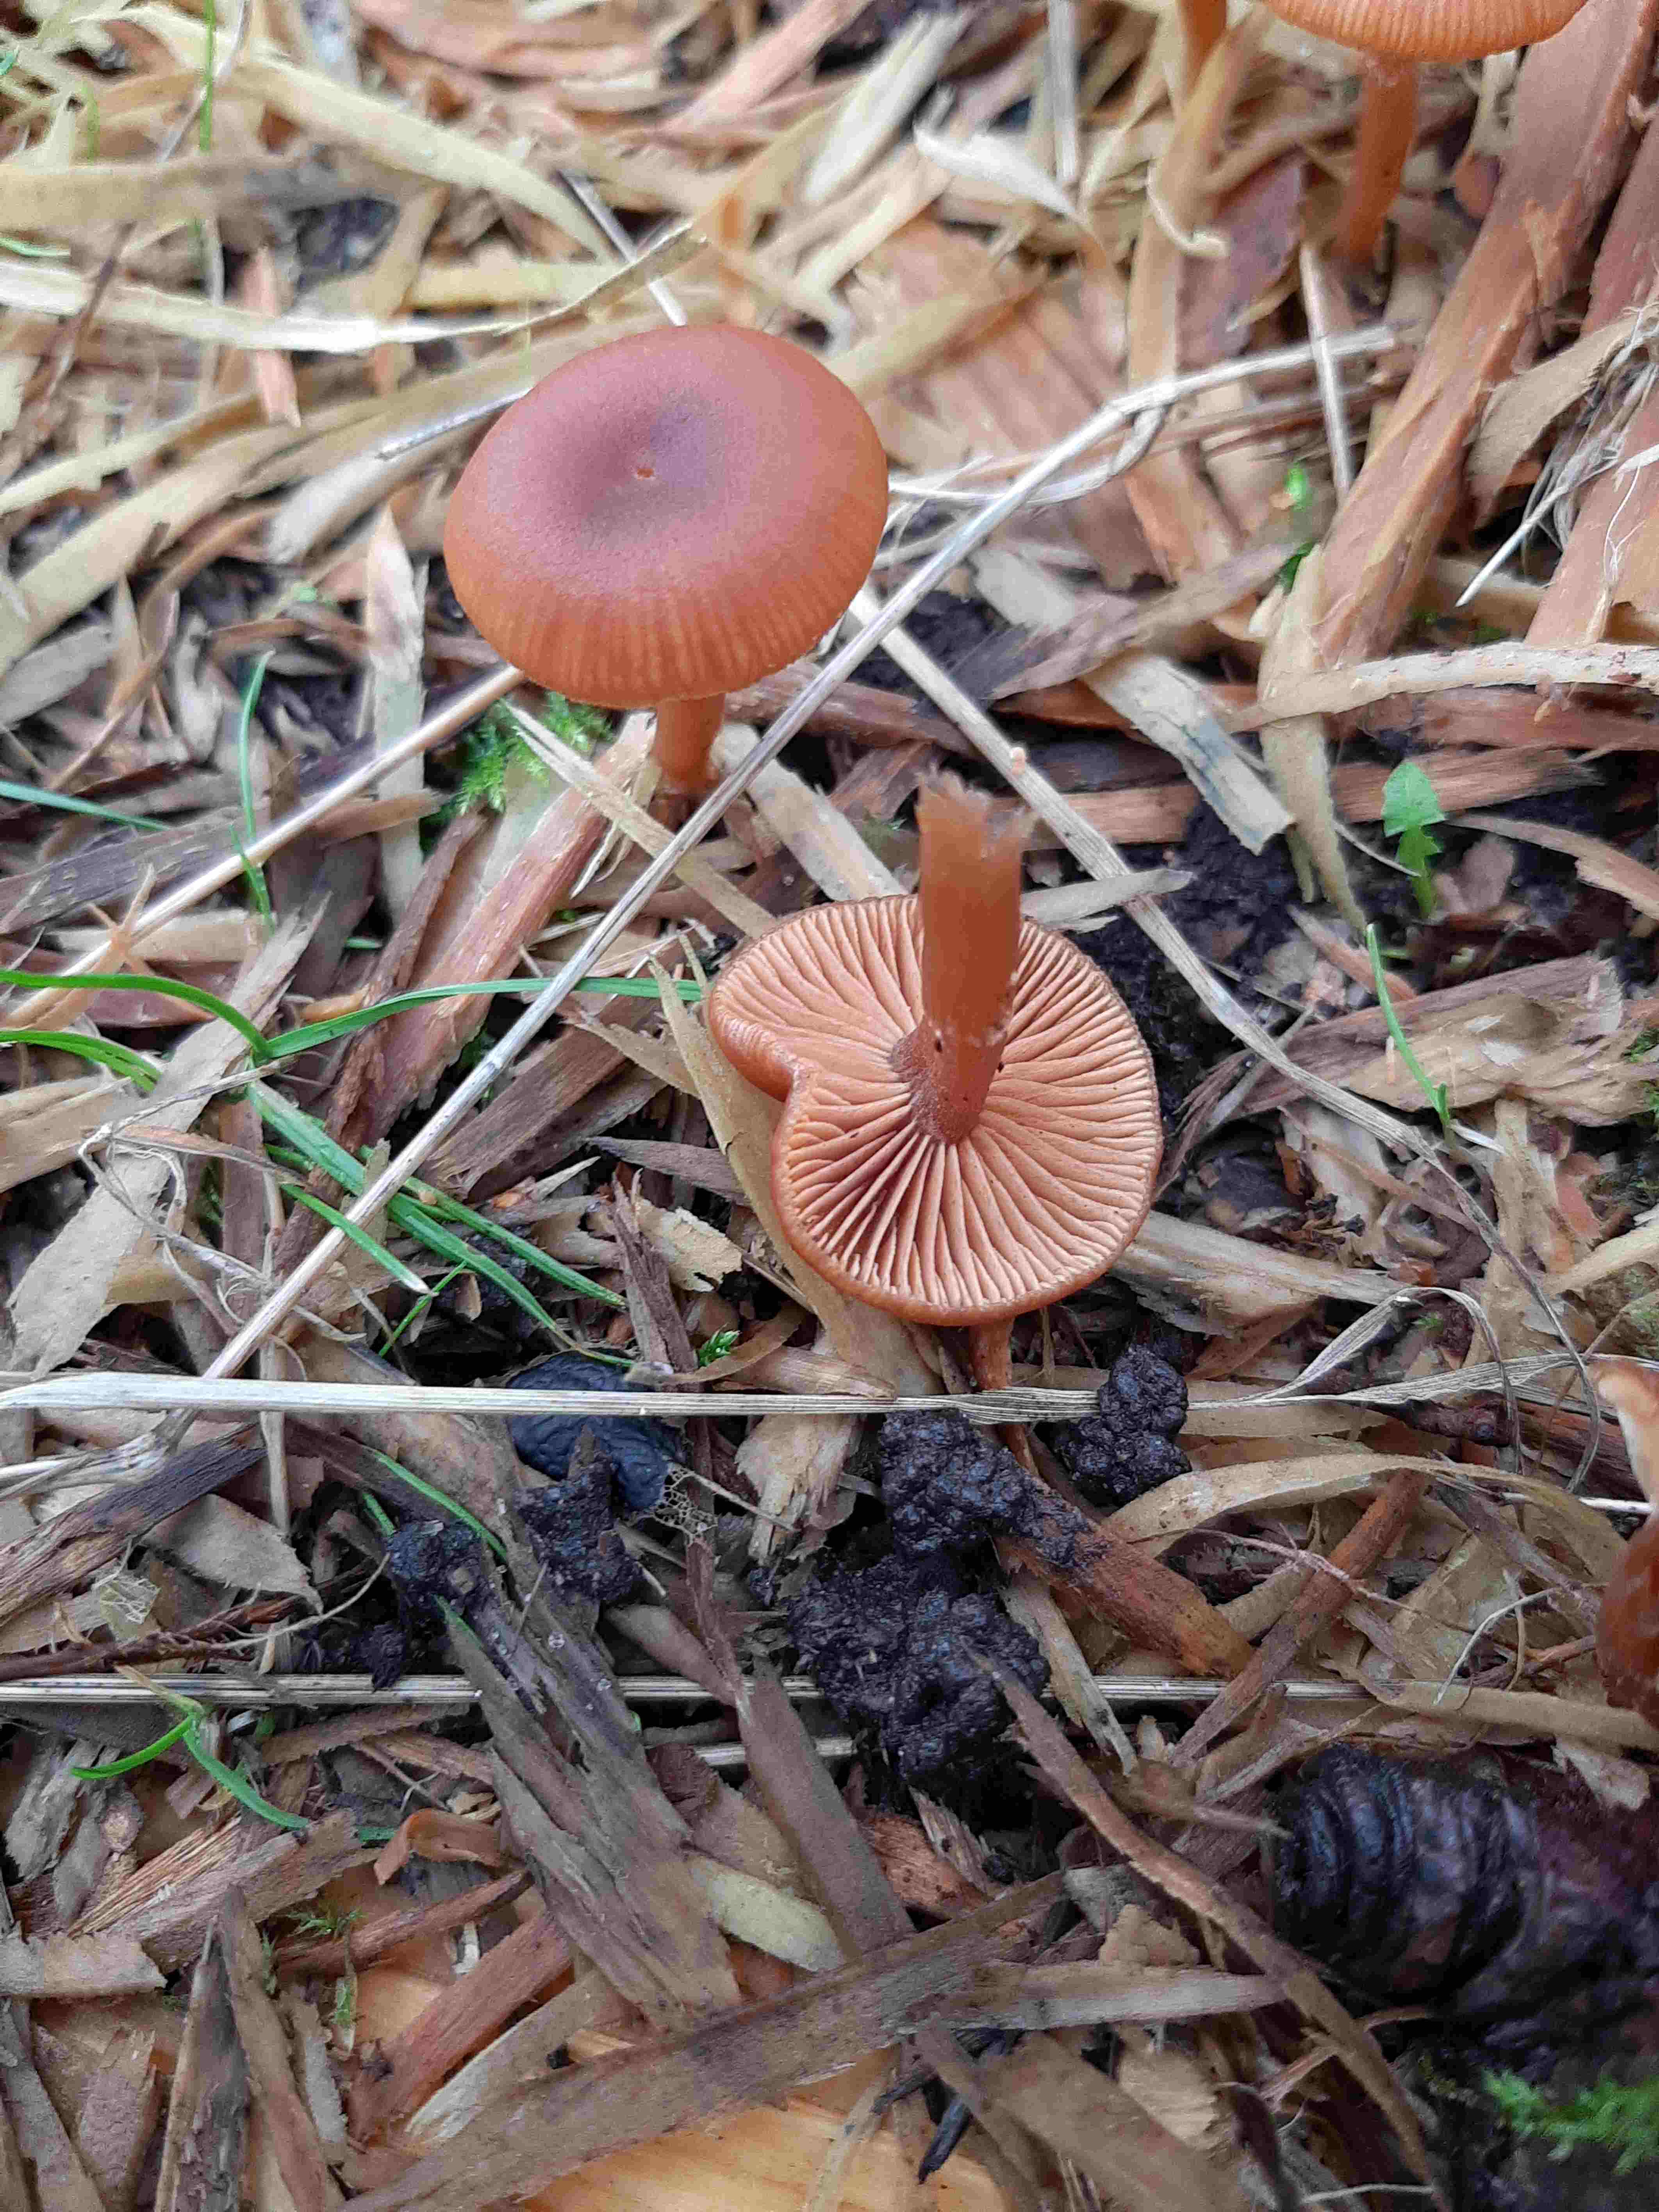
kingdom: Fungi
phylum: Basidiomycota
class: Agaricomycetes
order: Agaricales
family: Tubariaceae
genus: Tubaria
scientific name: Tubaria furfuracea
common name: kliddet fnughat
